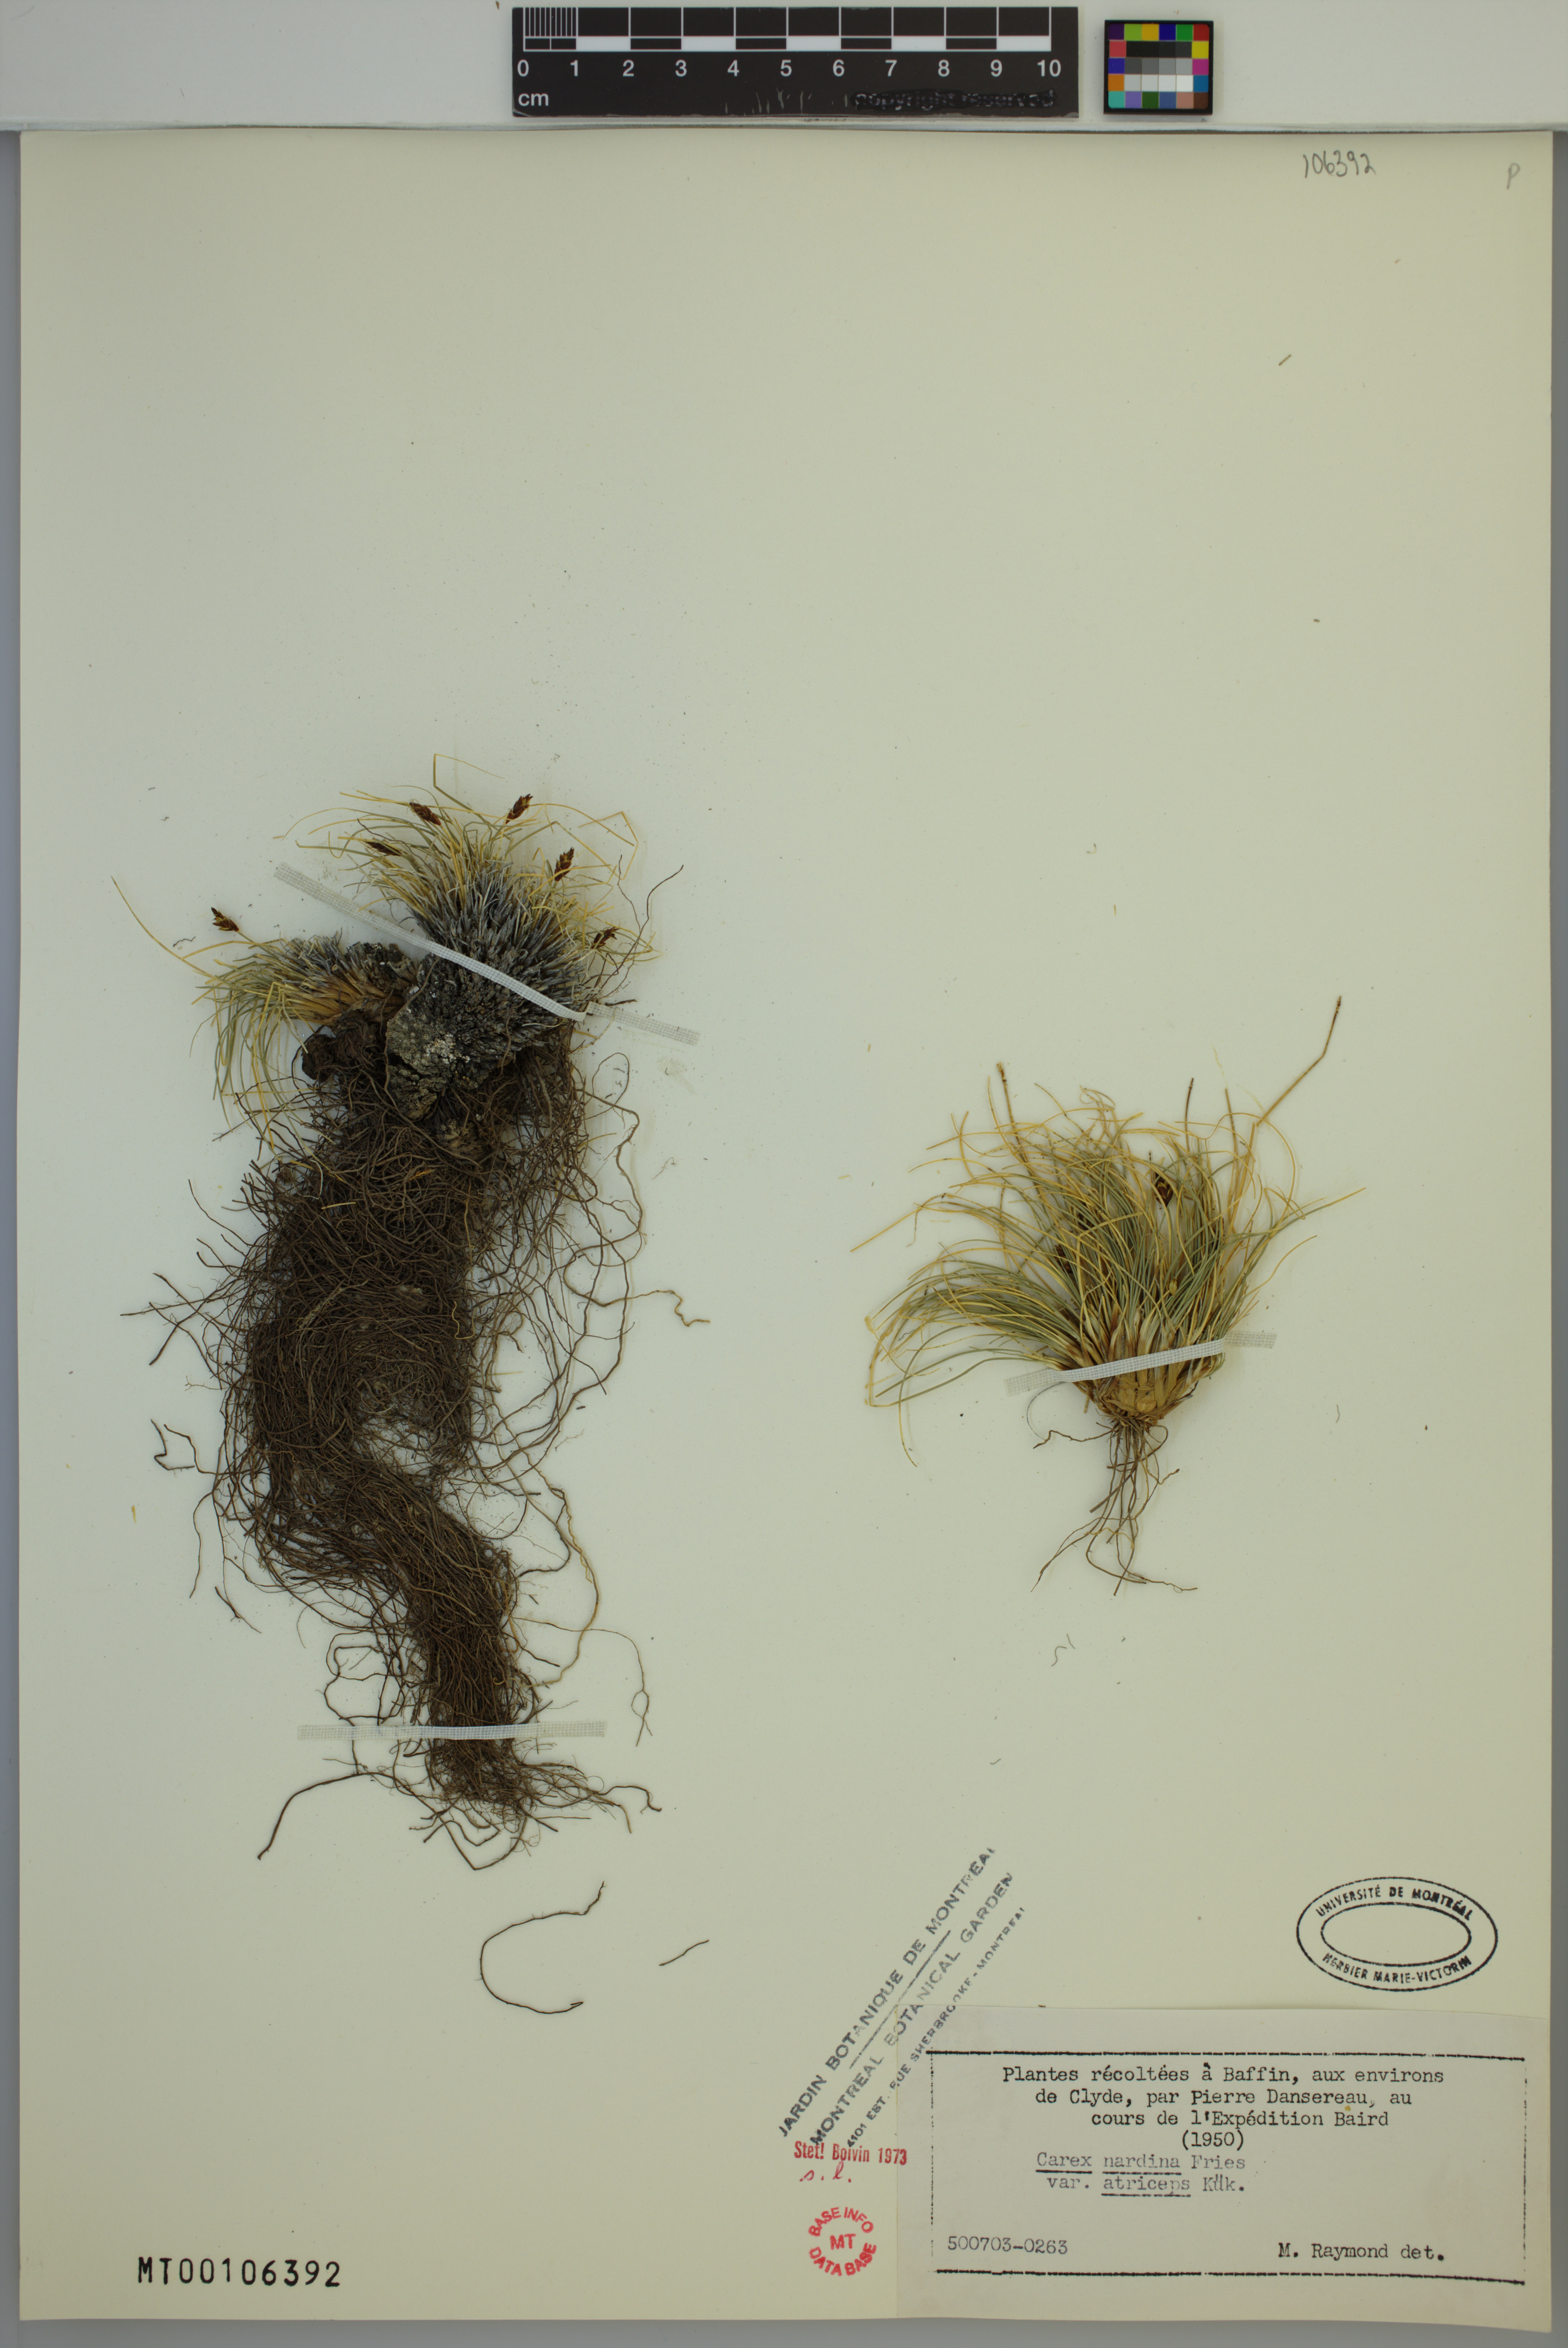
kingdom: Plantae
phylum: Tracheophyta
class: Liliopsida
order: Poales
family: Cyperaceae
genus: Carex
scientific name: Carex nardina
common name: Nard sedge
